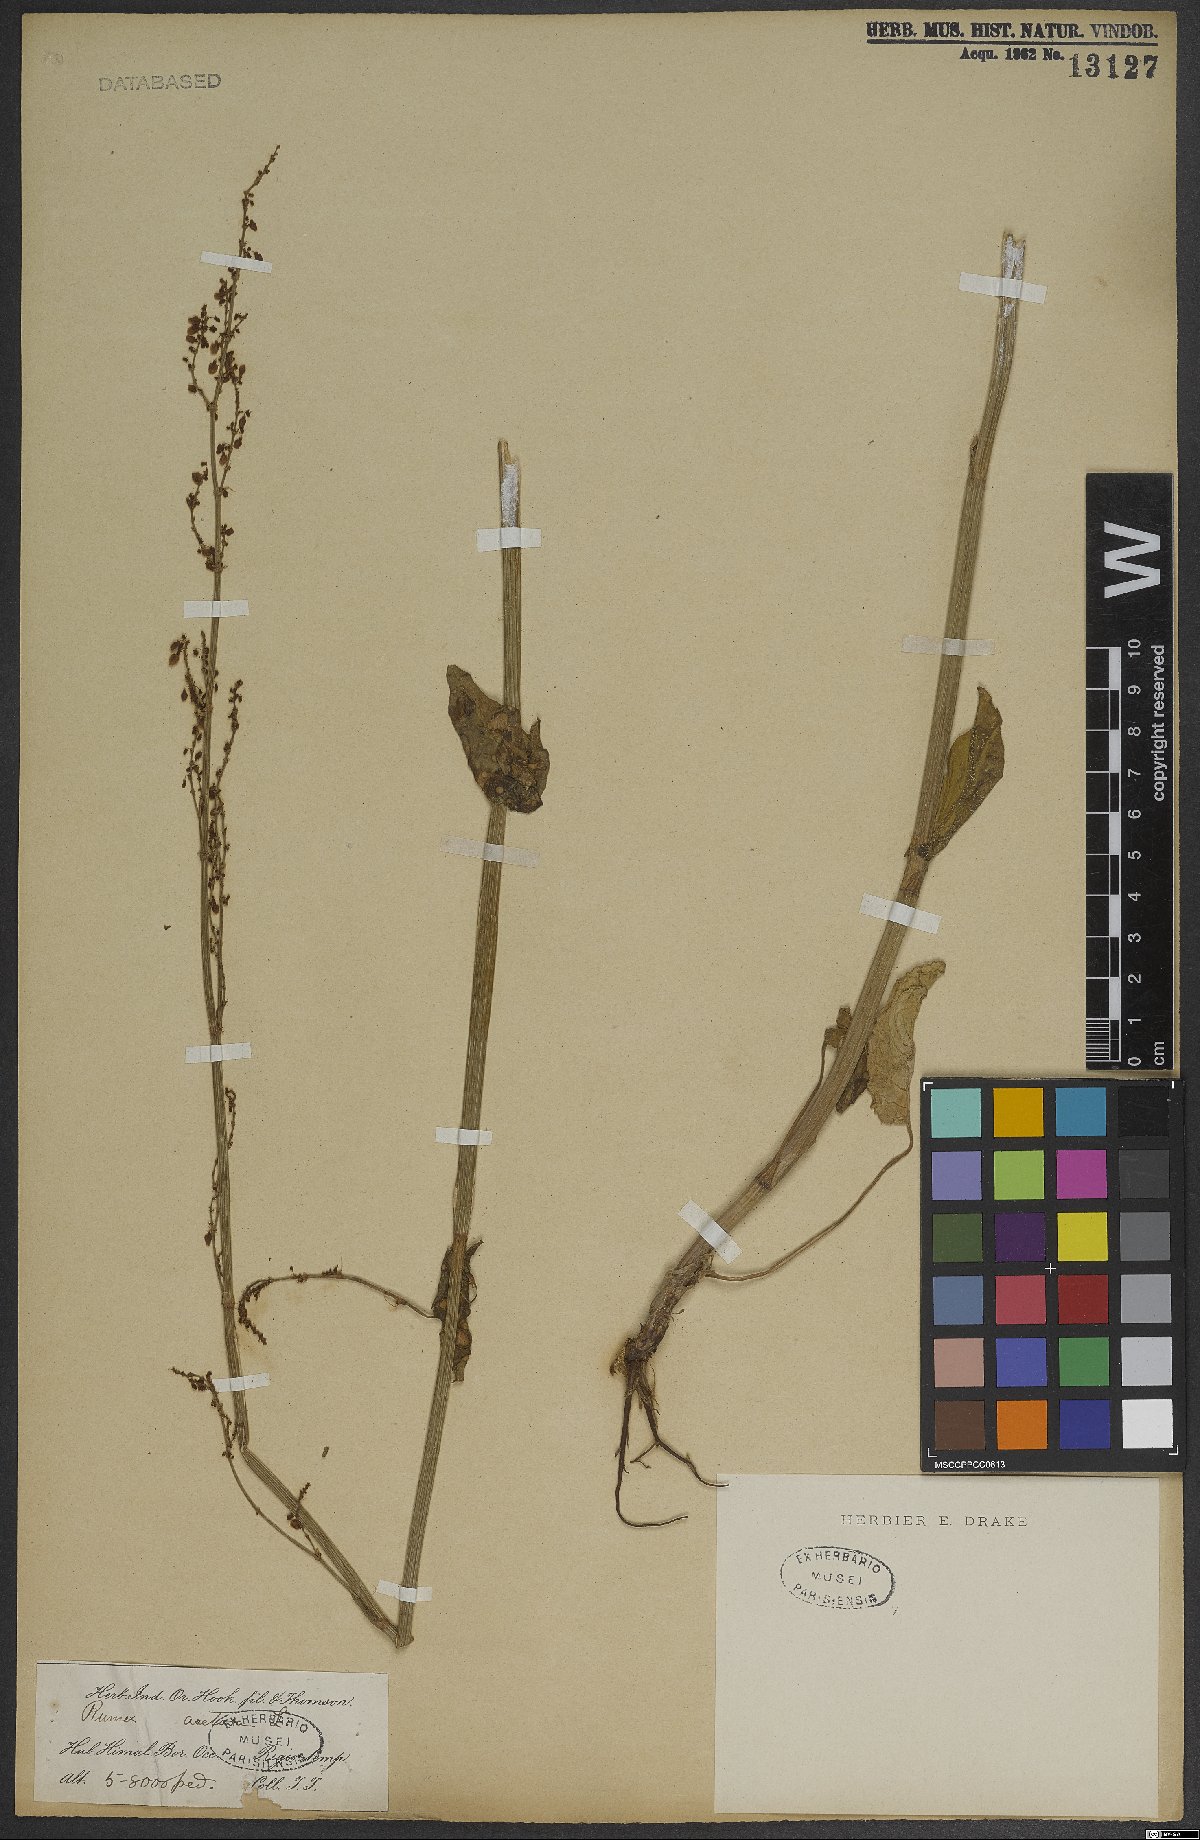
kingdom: Plantae
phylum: Tracheophyta
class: Magnoliopsida
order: Caryophyllales
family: Polygonaceae
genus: Rumex
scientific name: Rumex acetosa
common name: Garden sorrel
